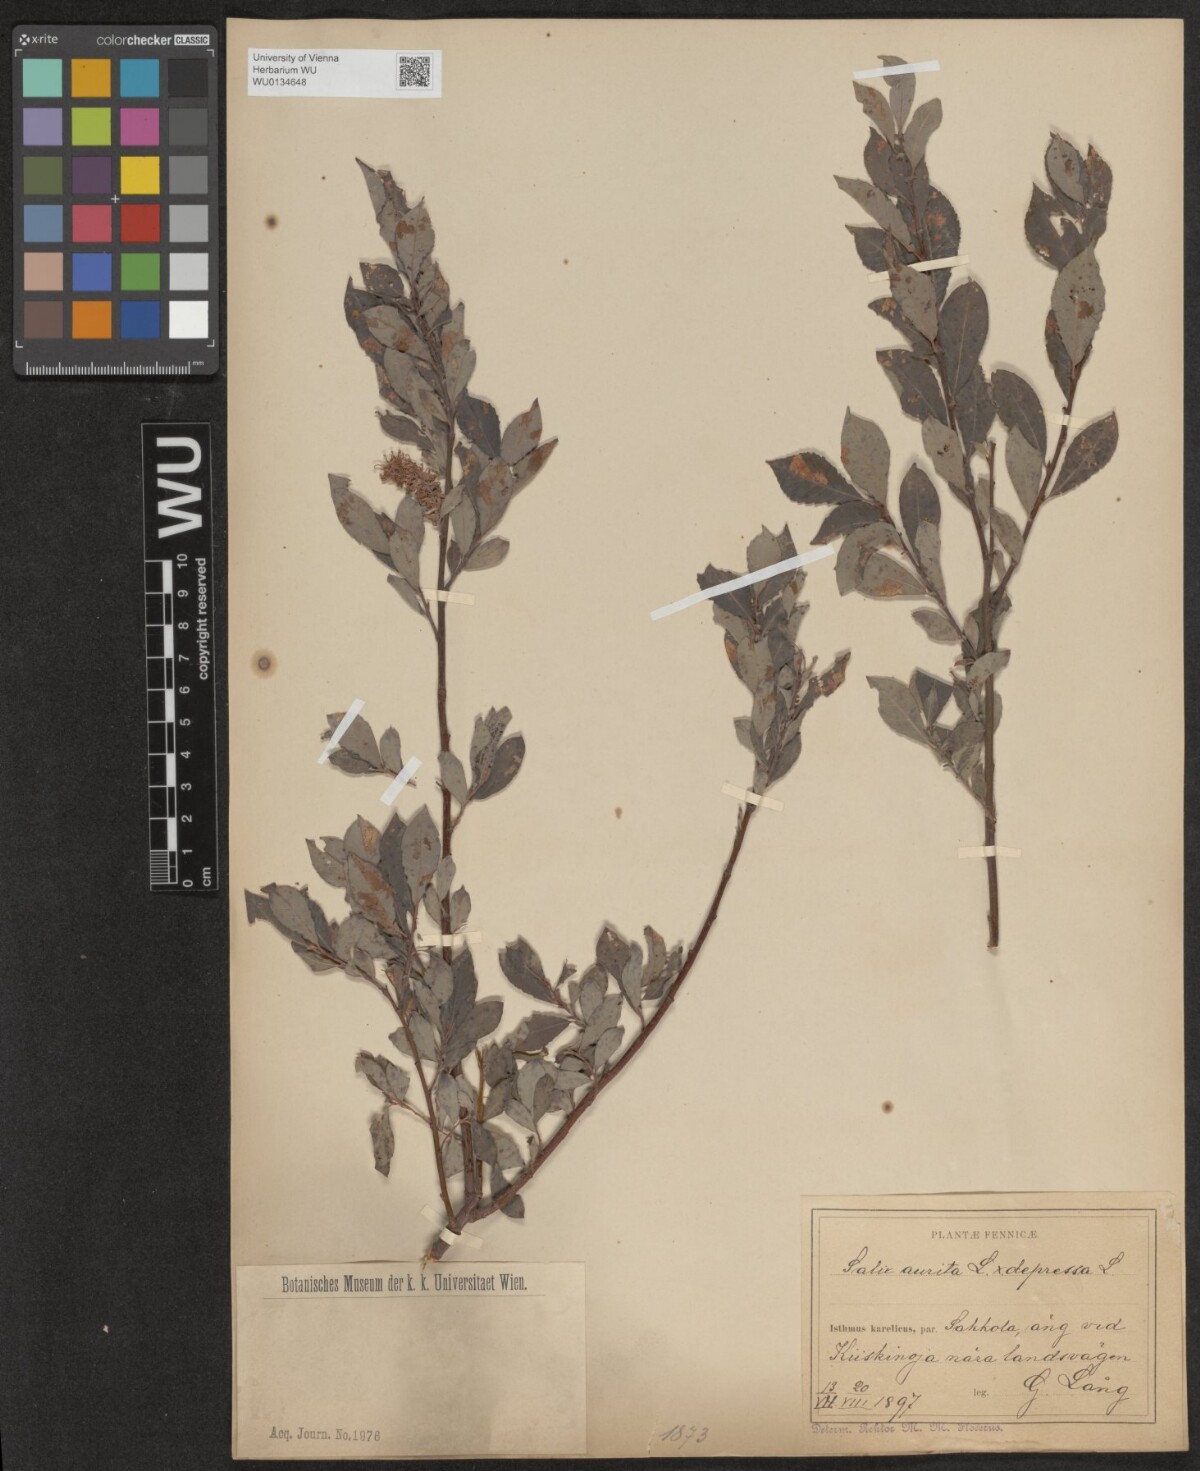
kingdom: Plantae
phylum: Tracheophyta
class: Magnoliopsida
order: Malpighiales
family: Salicaceae
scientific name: Salicaceae
